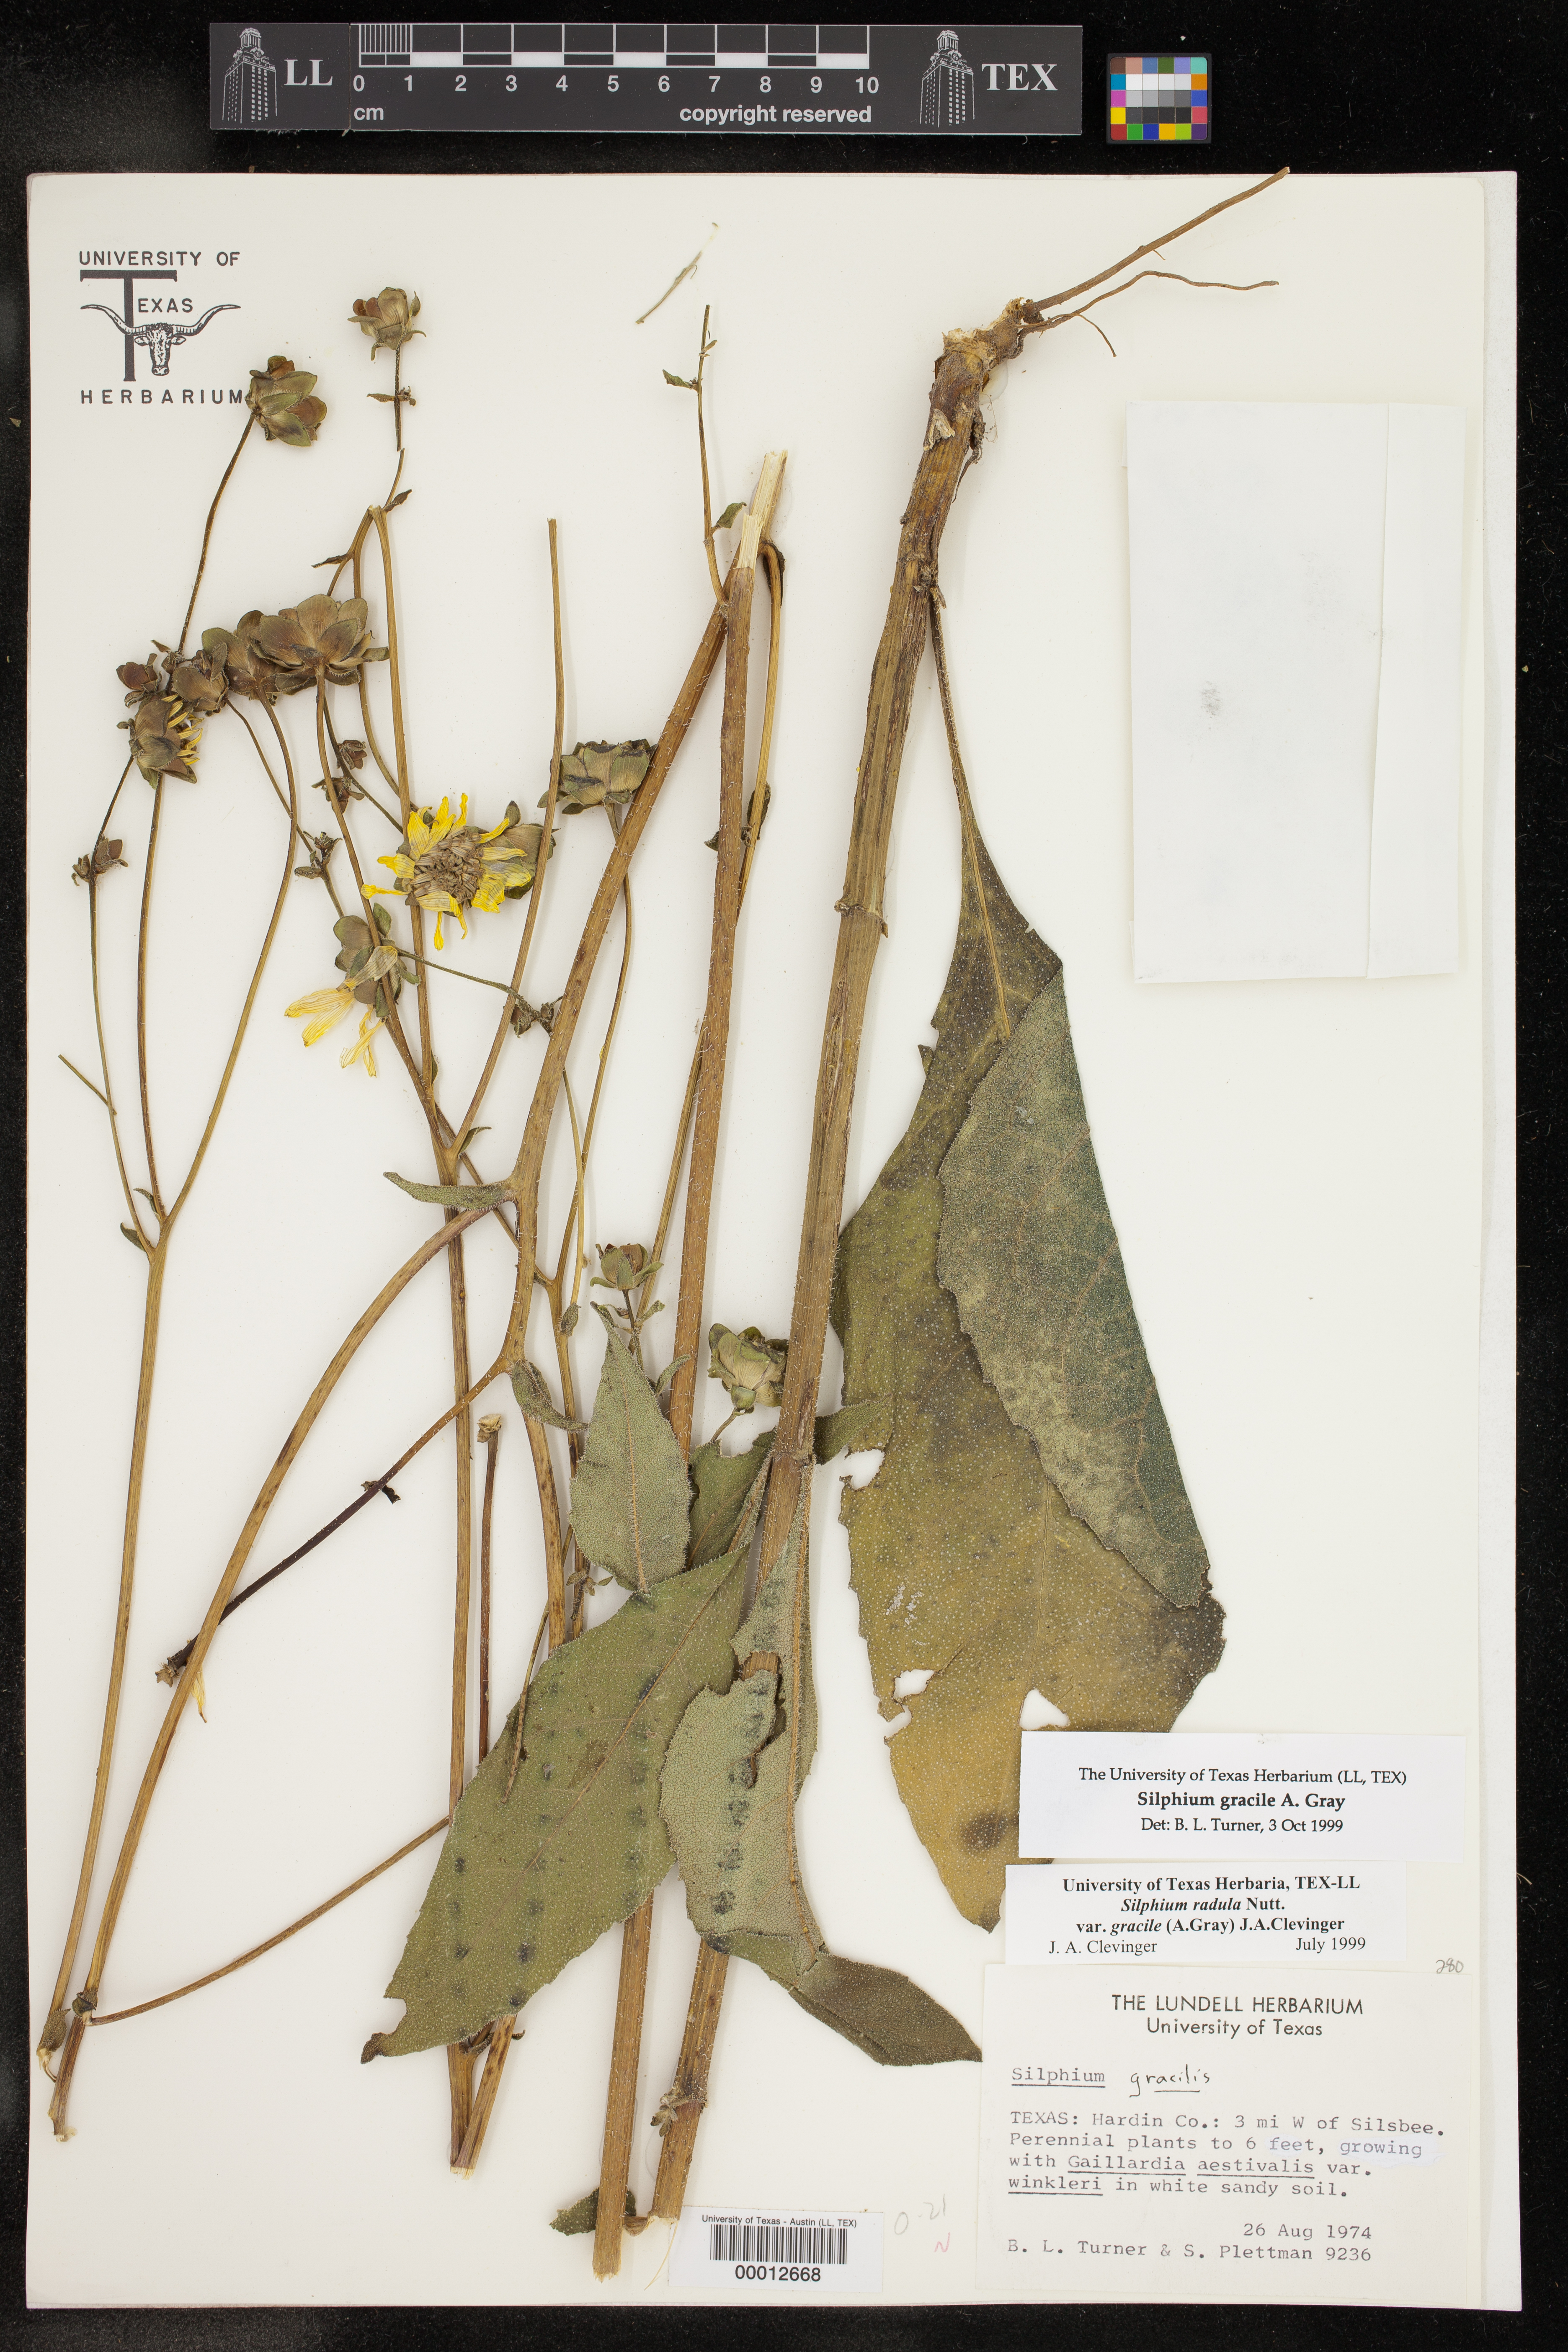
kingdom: Plantae
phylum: Tracheophyta
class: Magnoliopsida
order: Asterales
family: Asteraceae
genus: Silphium
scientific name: Silphium radula
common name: Roughleaf rosinweed
